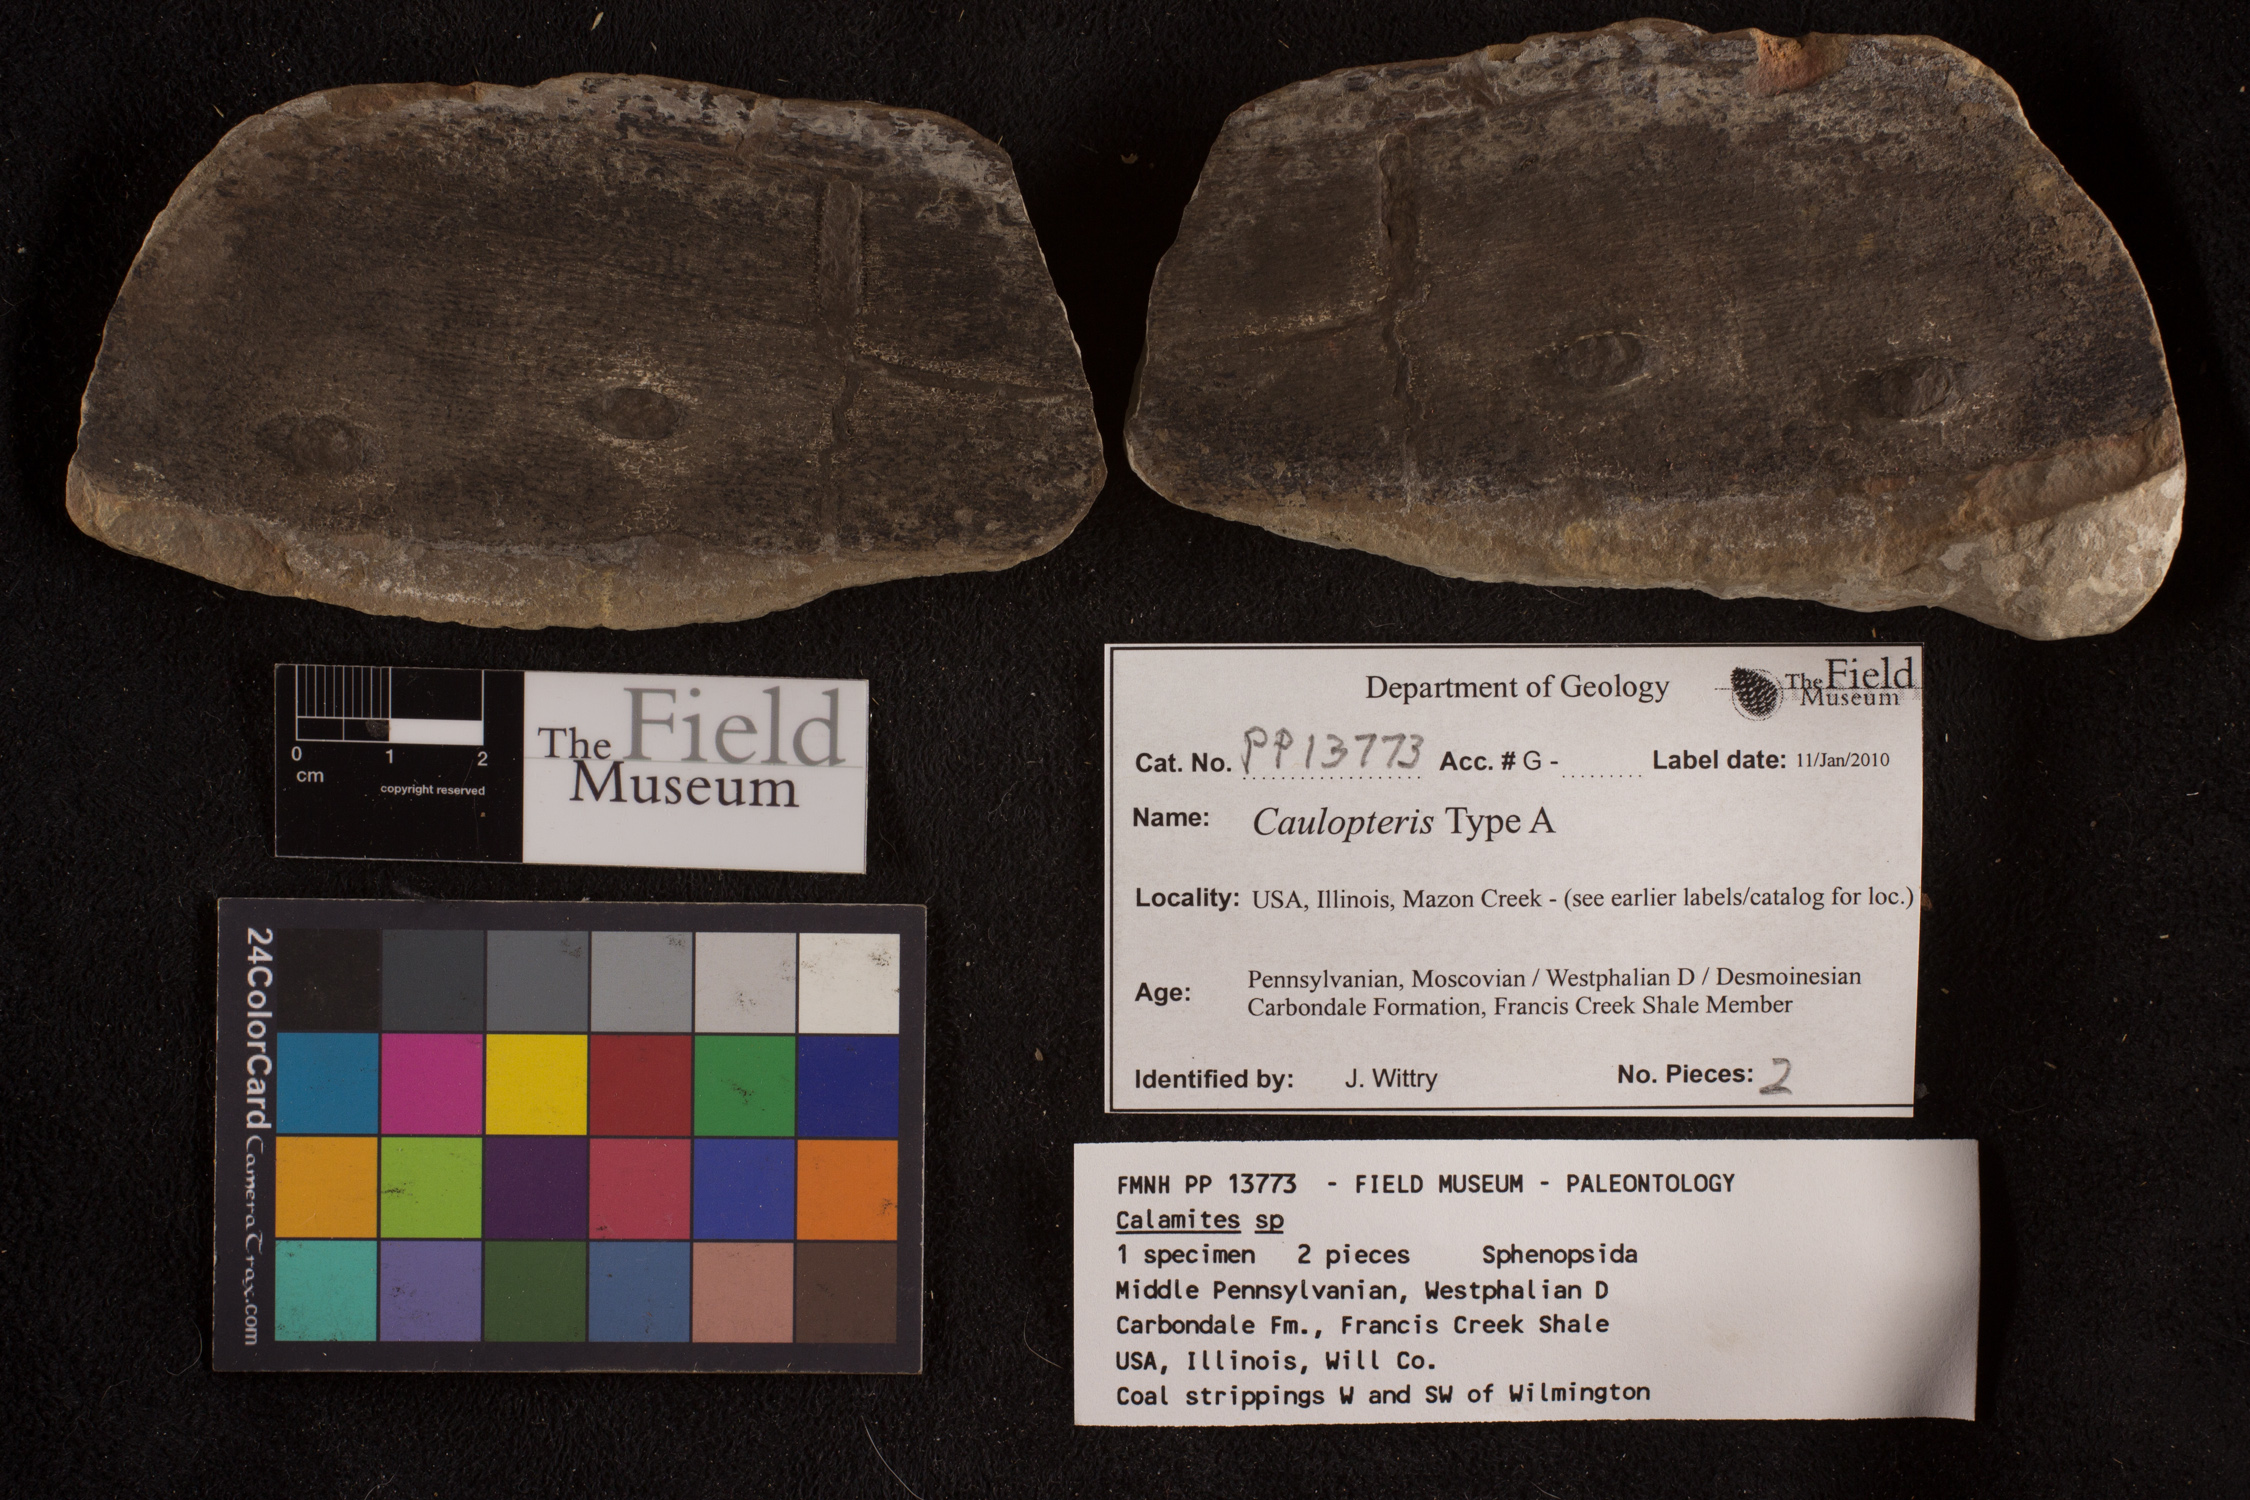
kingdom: Plantae
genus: Calamophyllites
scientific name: Calamophyllites
